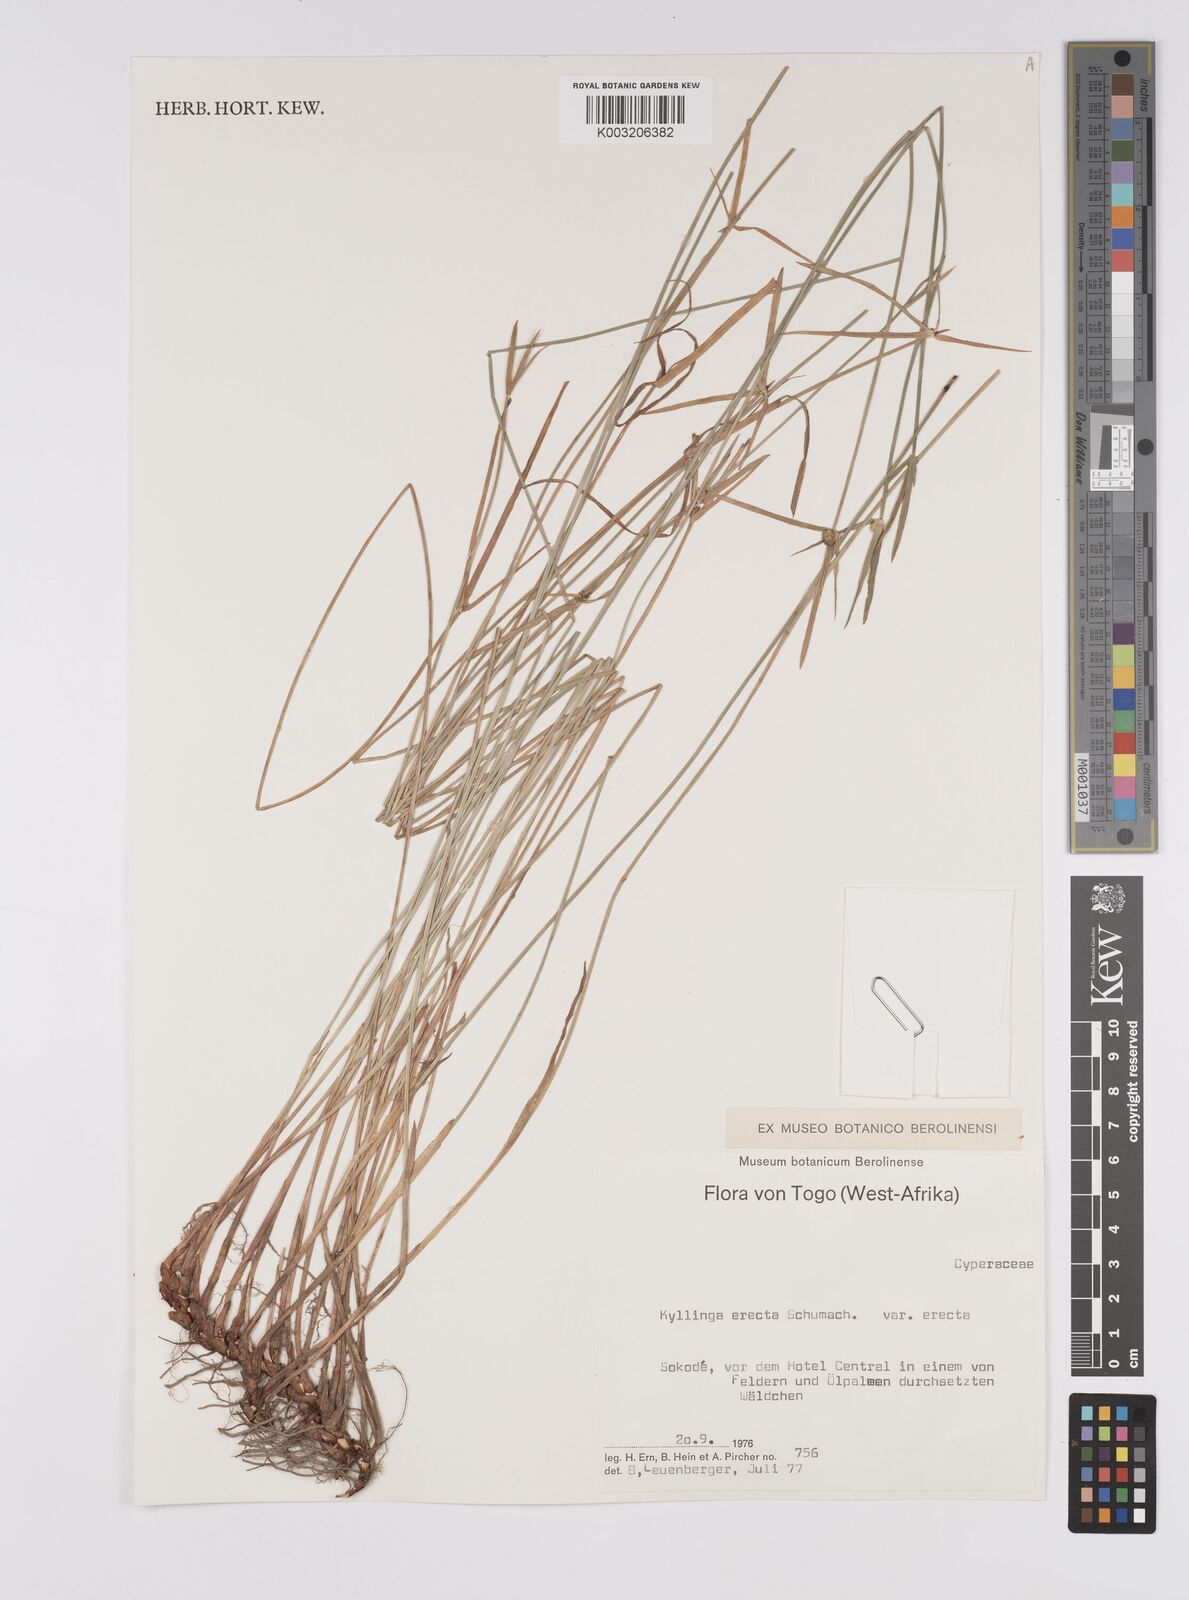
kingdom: Plantae
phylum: Tracheophyta
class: Liliopsida
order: Poales
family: Cyperaceae
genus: Cyperus
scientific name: Cyperus erectus
